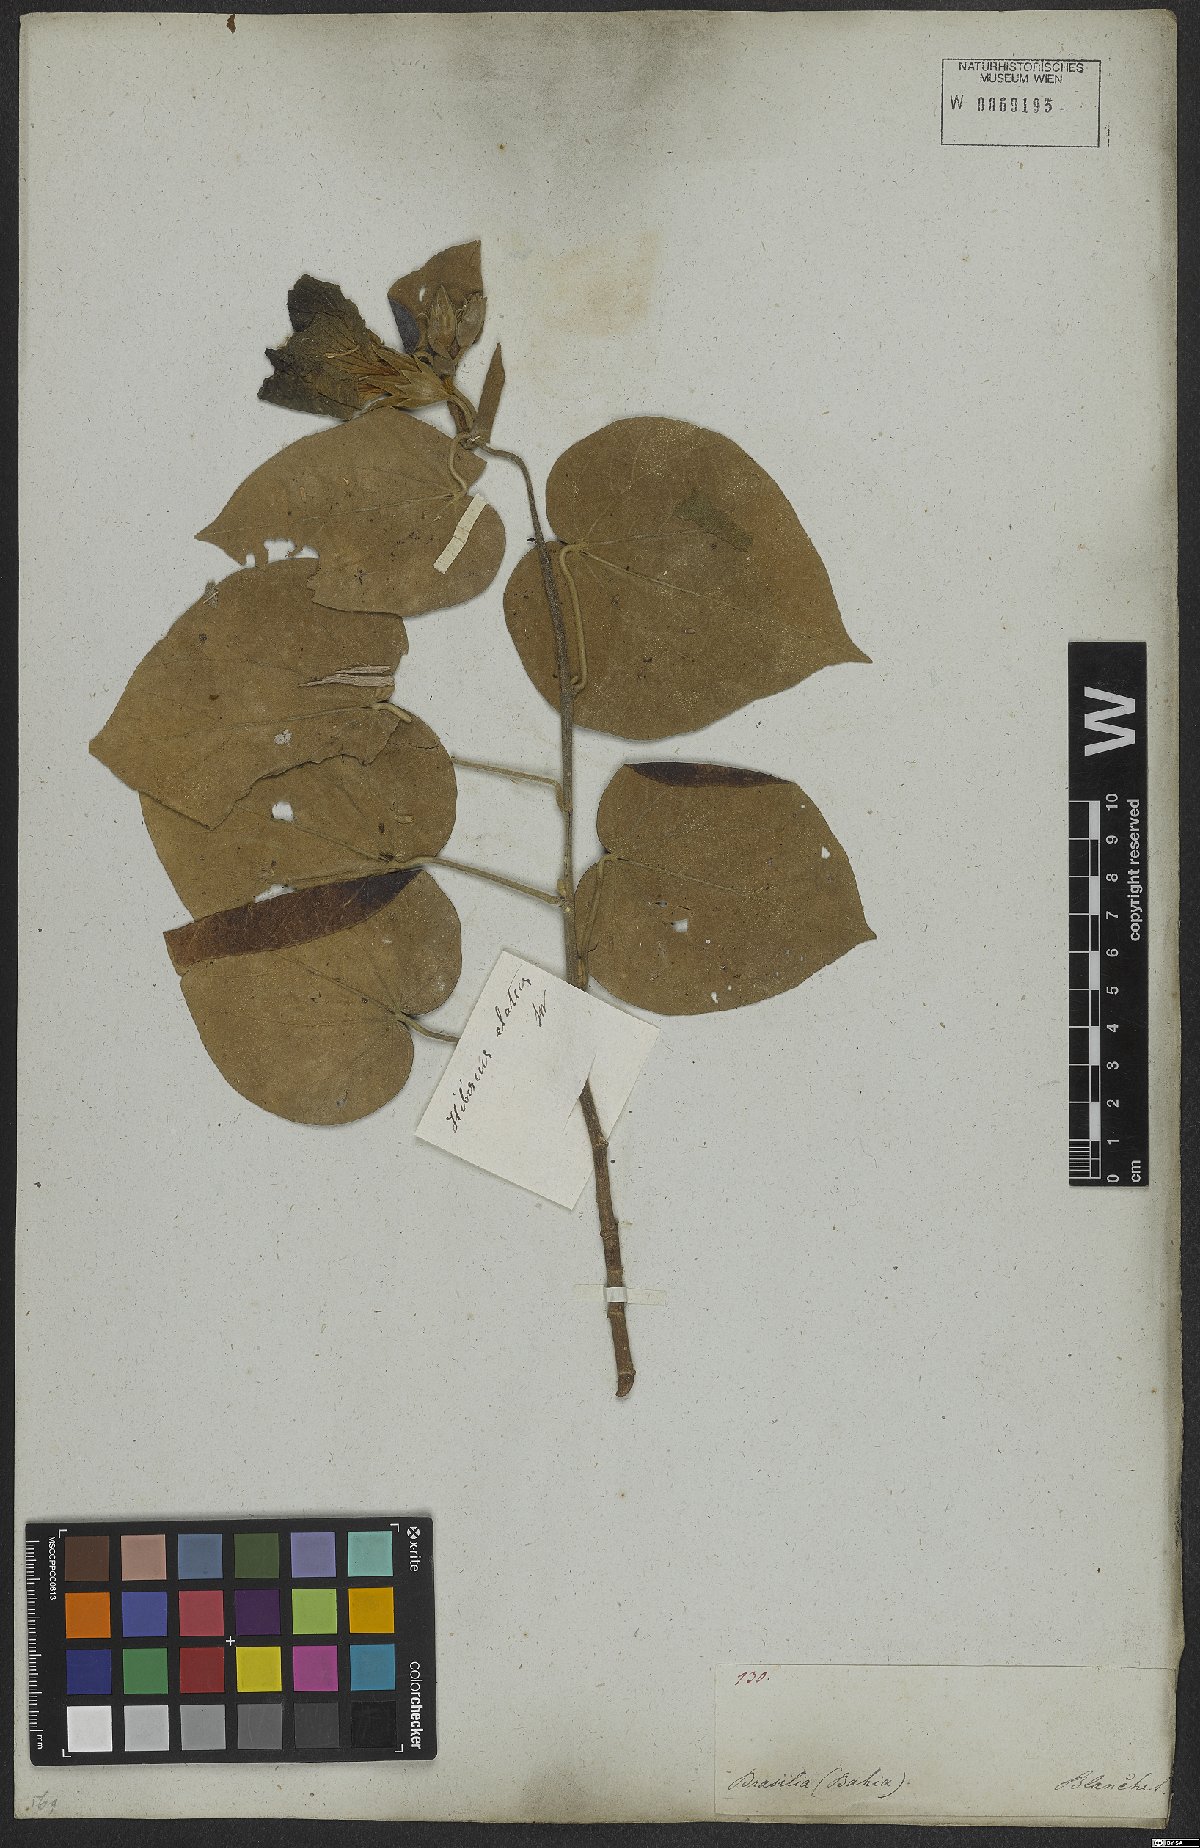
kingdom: Plantae
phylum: Tracheophyta
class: Magnoliopsida
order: Malvales
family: Malvaceae
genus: Talipariti
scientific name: Talipariti tiliaceum
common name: Sea hibiscus
